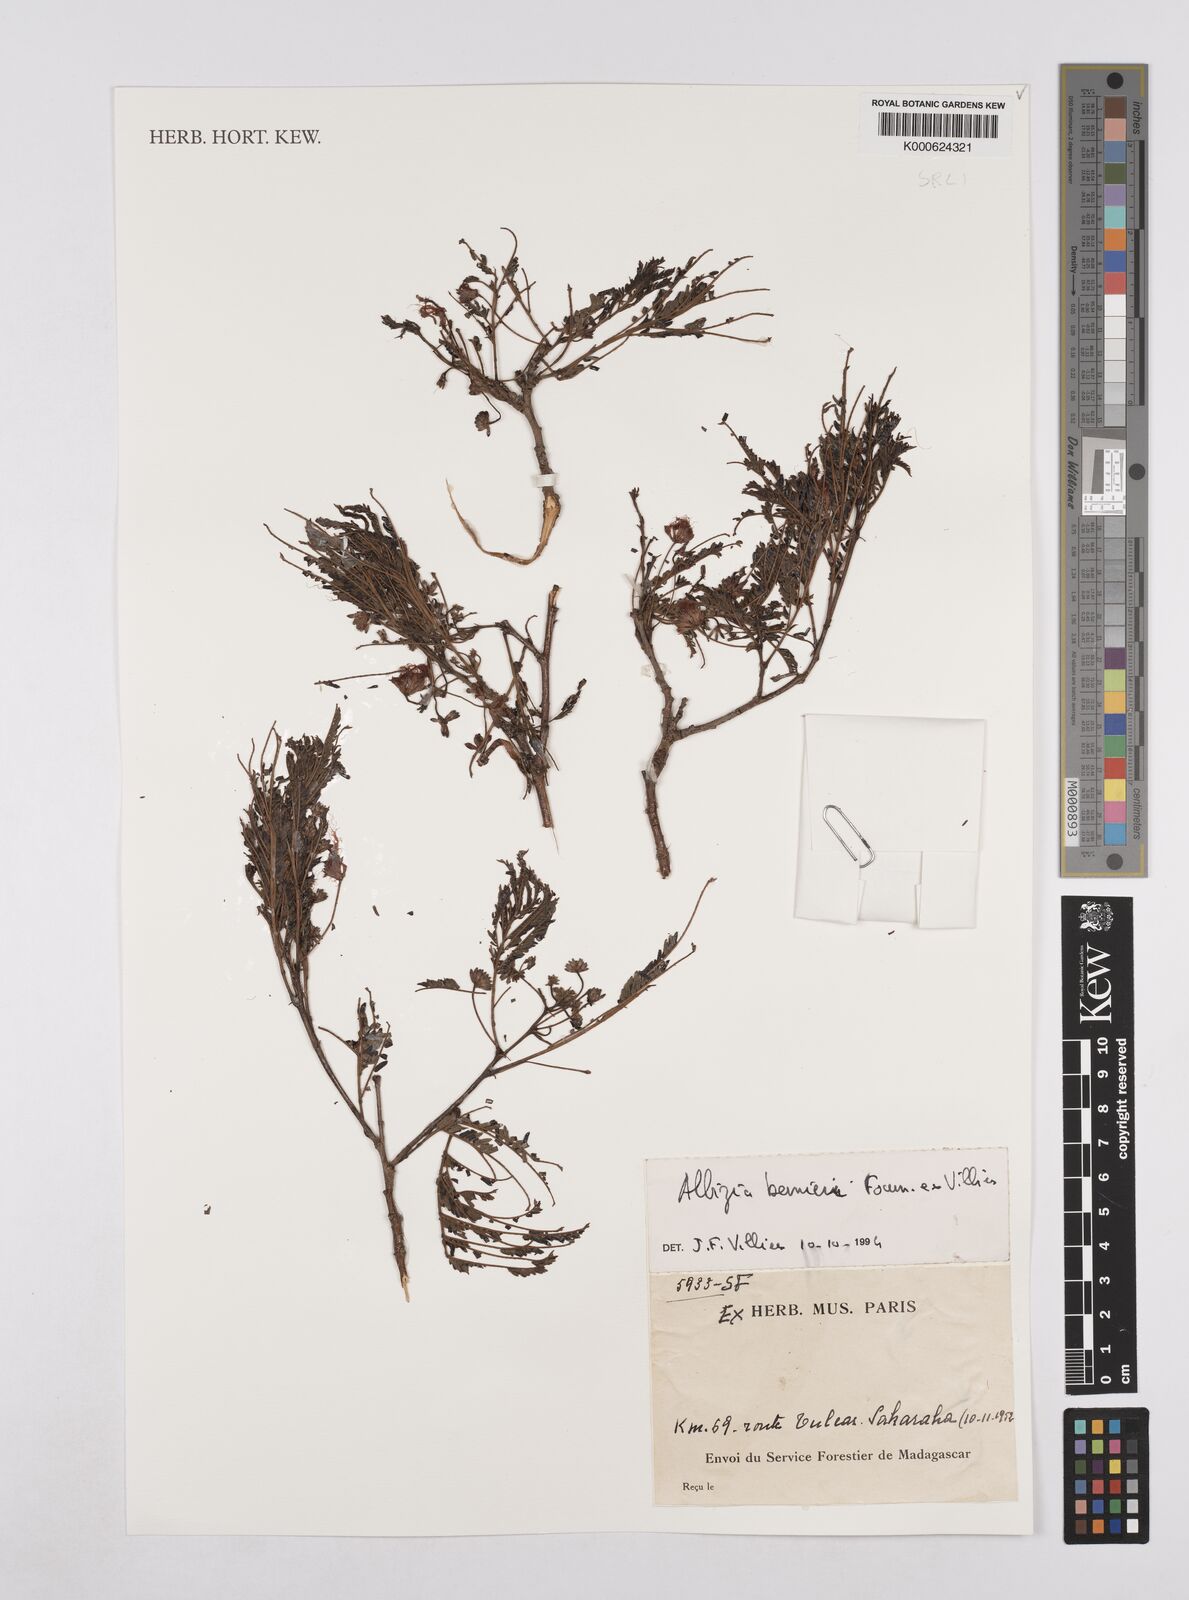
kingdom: Plantae
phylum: Tracheophyta
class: Magnoliopsida
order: Fabales
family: Fabaceae
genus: Albizia
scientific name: Albizia bernieri
